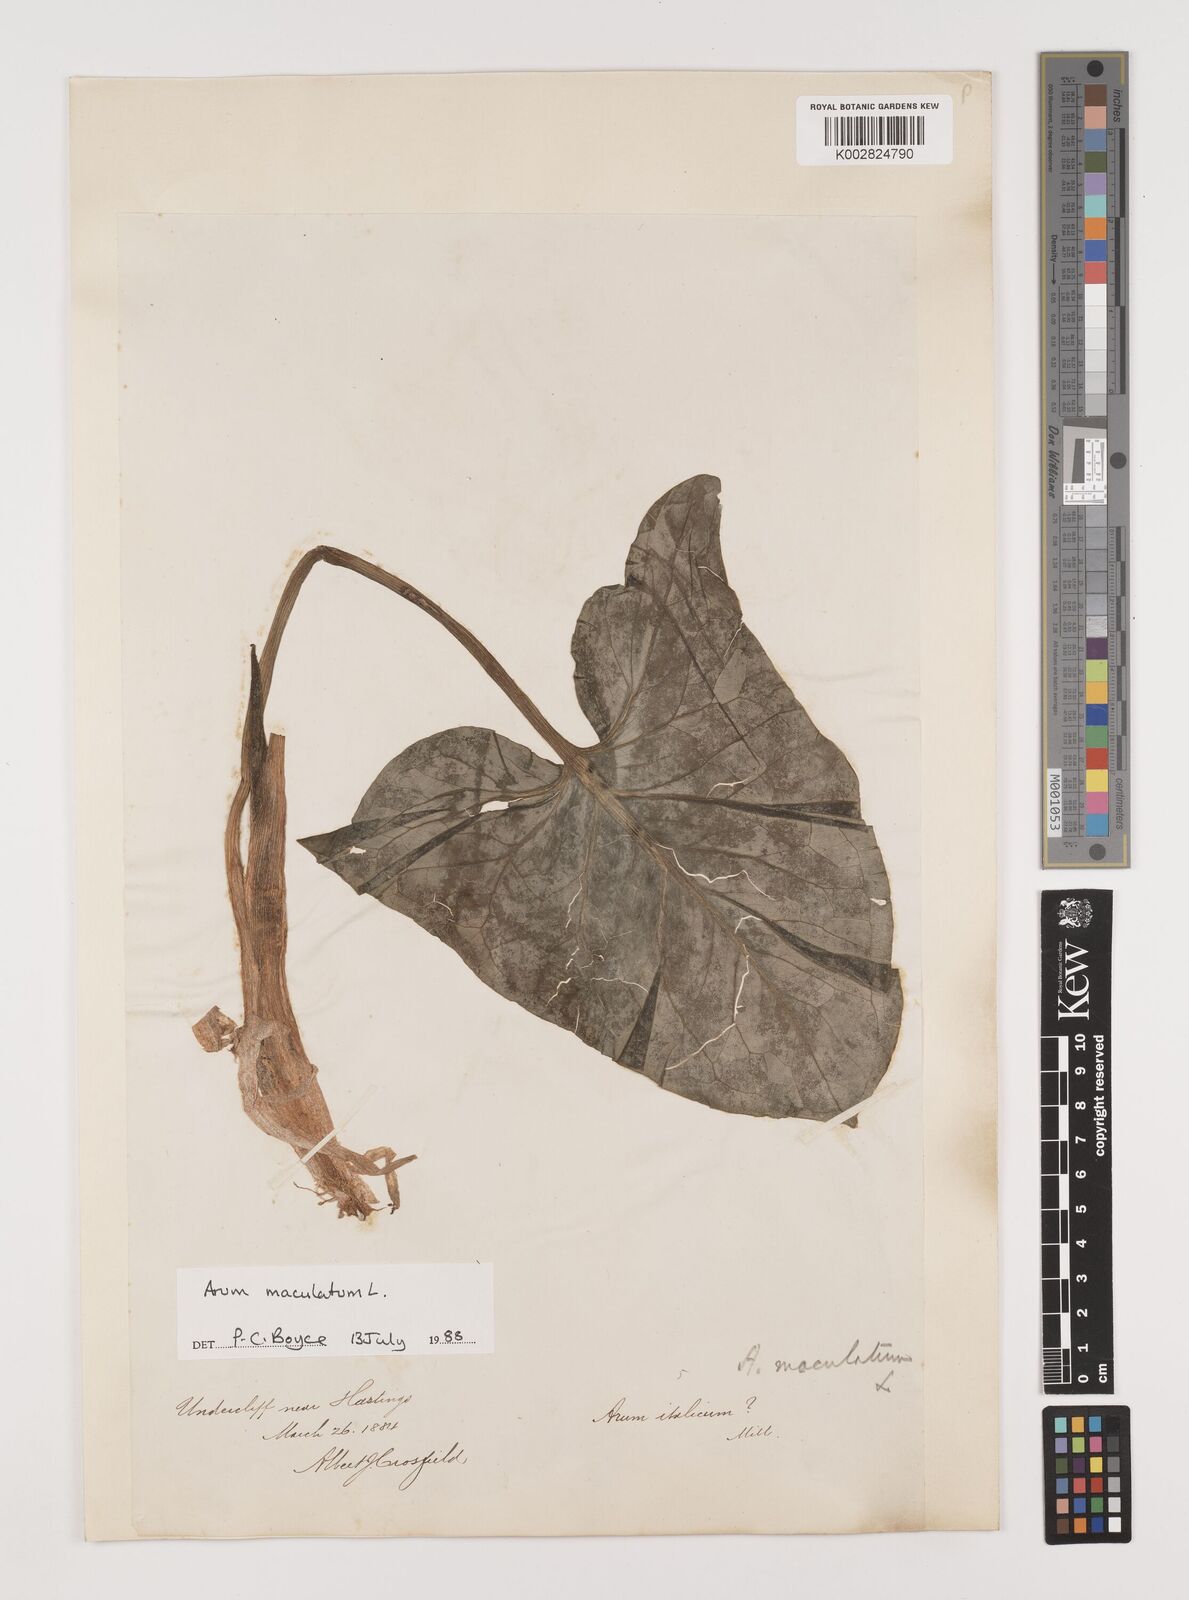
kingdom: Plantae
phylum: Tracheophyta
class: Liliopsida
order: Alismatales
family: Araceae
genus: Arum
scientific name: Arum maculatum
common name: Lords-and-ladies
